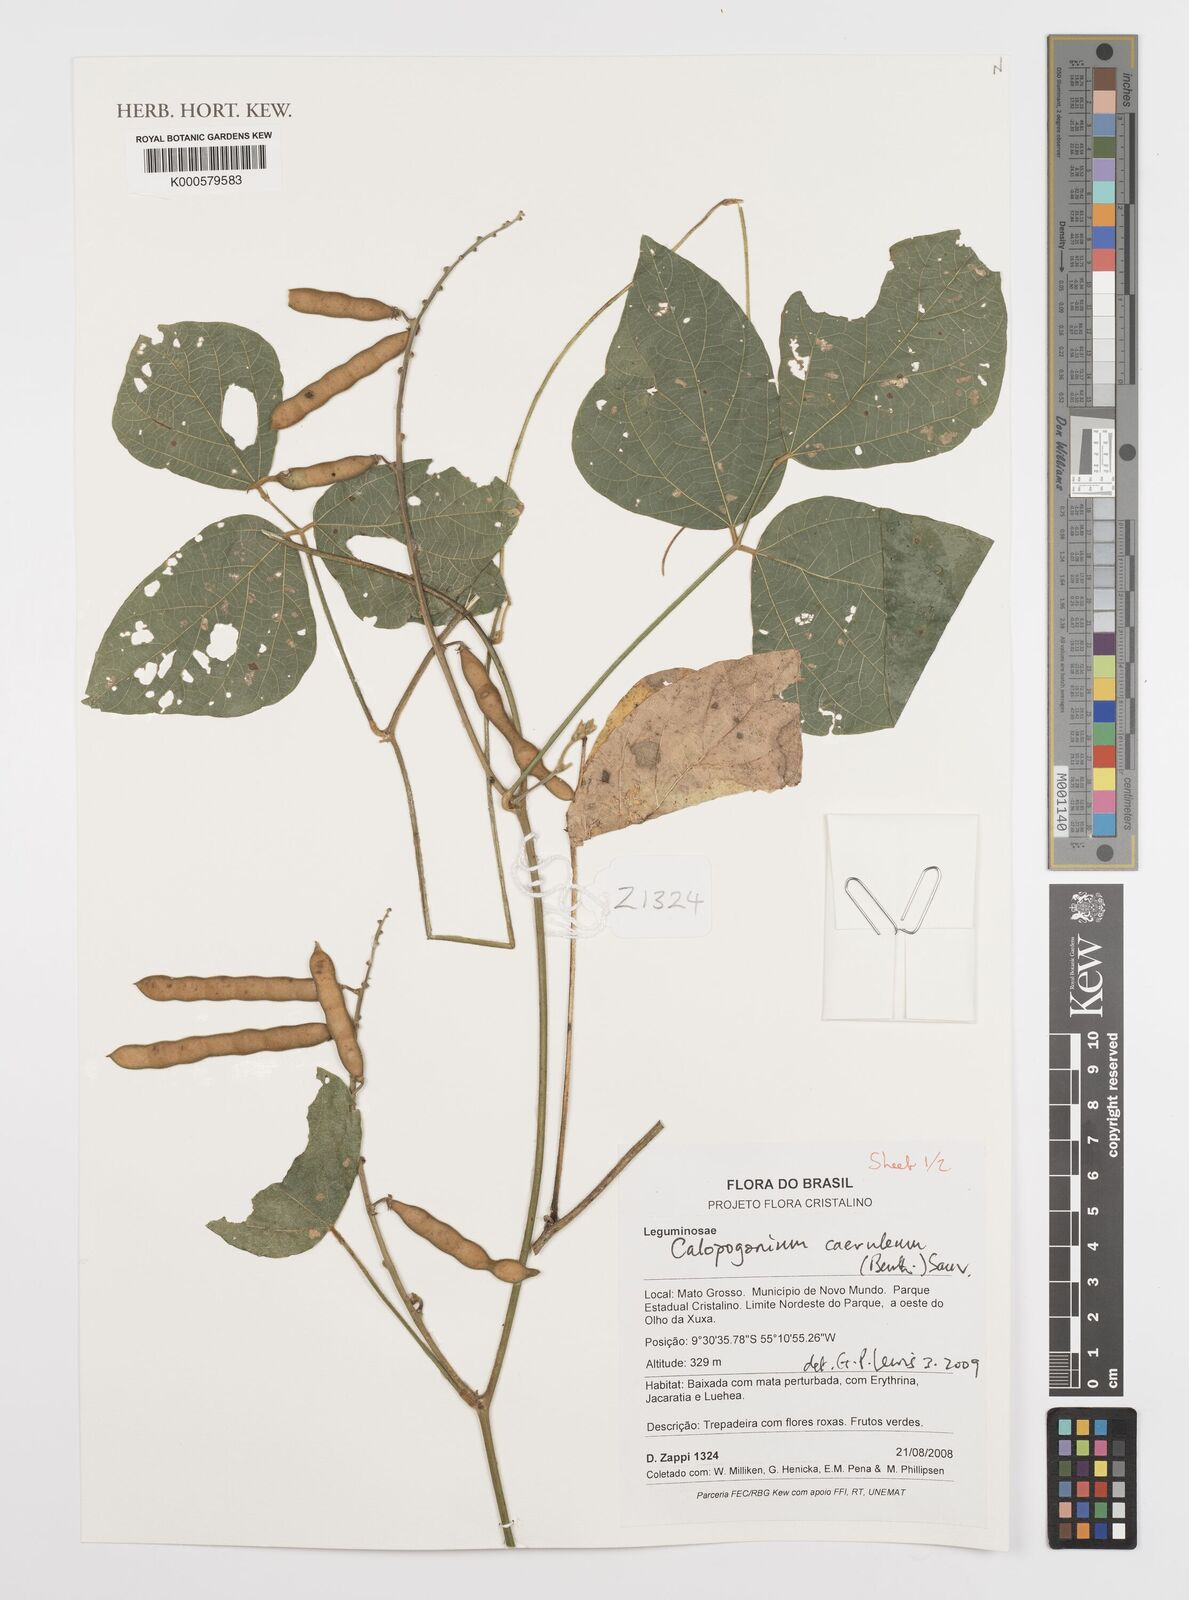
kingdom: Plantae
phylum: Tracheophyta
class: Magnoliopsida
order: Fabales
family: Fabaceae
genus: Calopogonium
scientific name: Calopogonium
